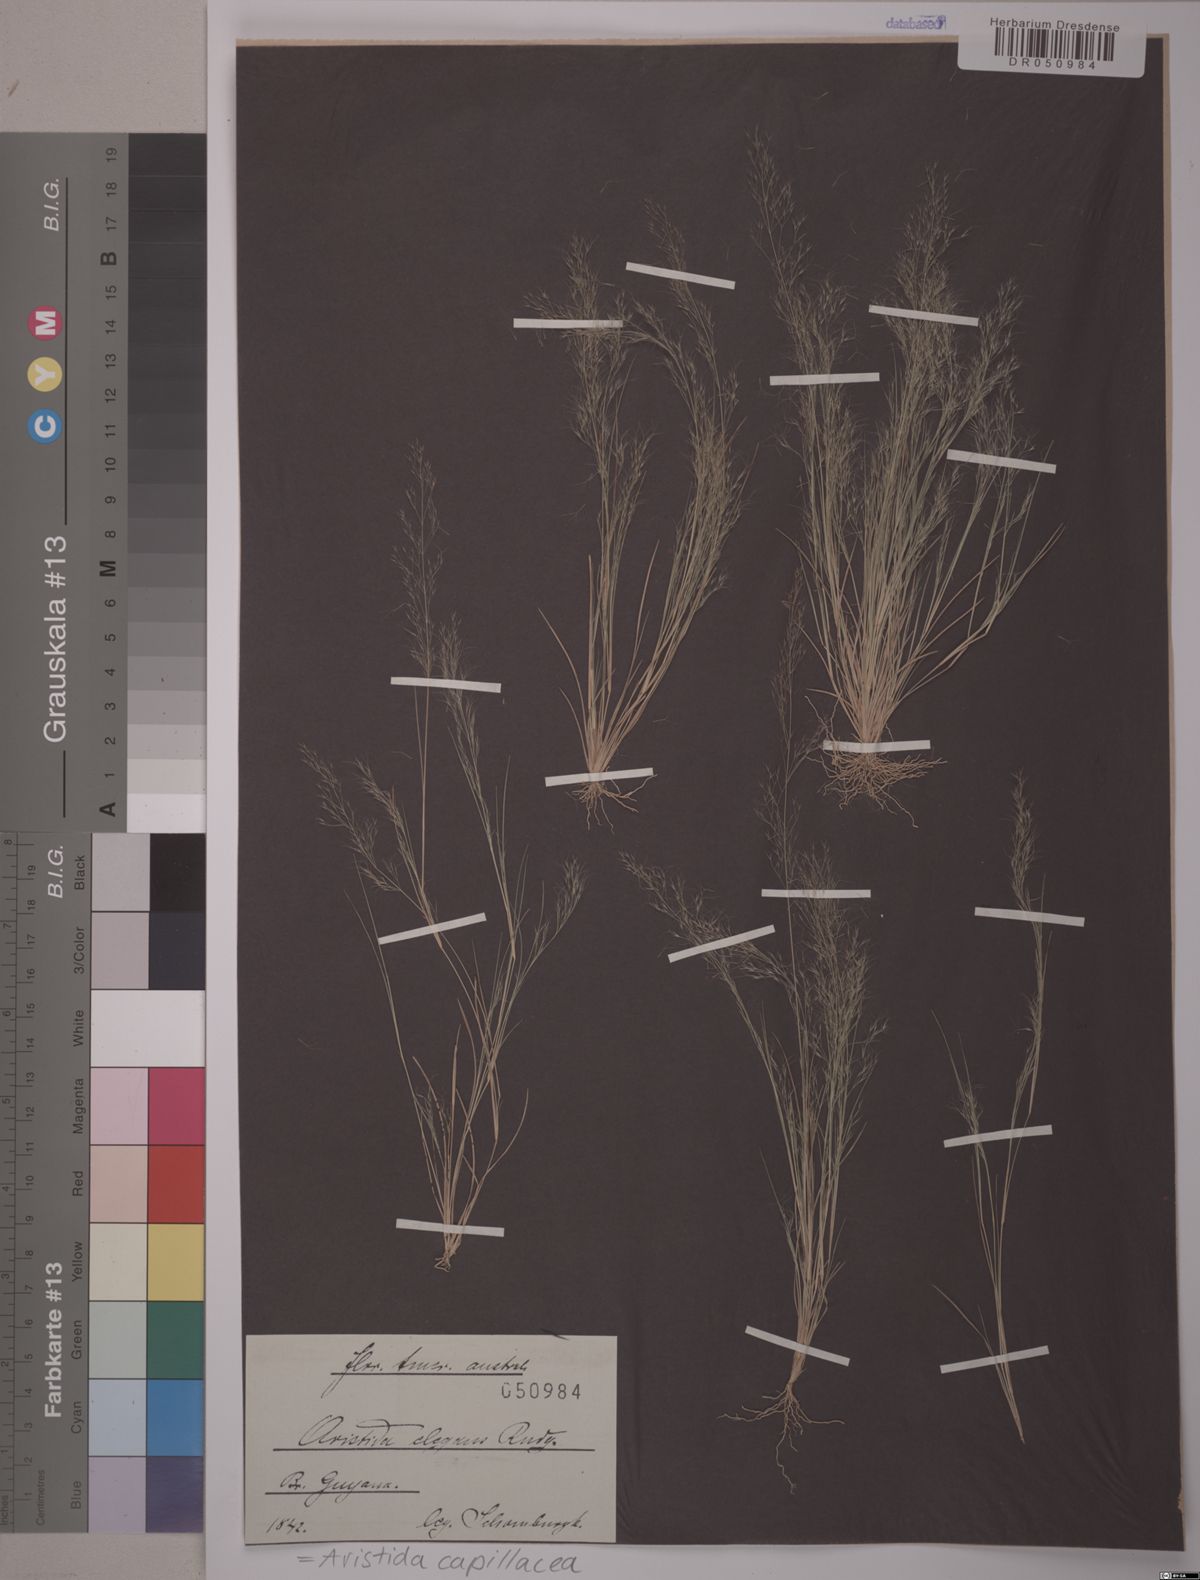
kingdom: Plantae
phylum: Tracheophyta
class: Liliopsida
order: Poales
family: Poaceae
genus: Aristida
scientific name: Aristida capillacea
